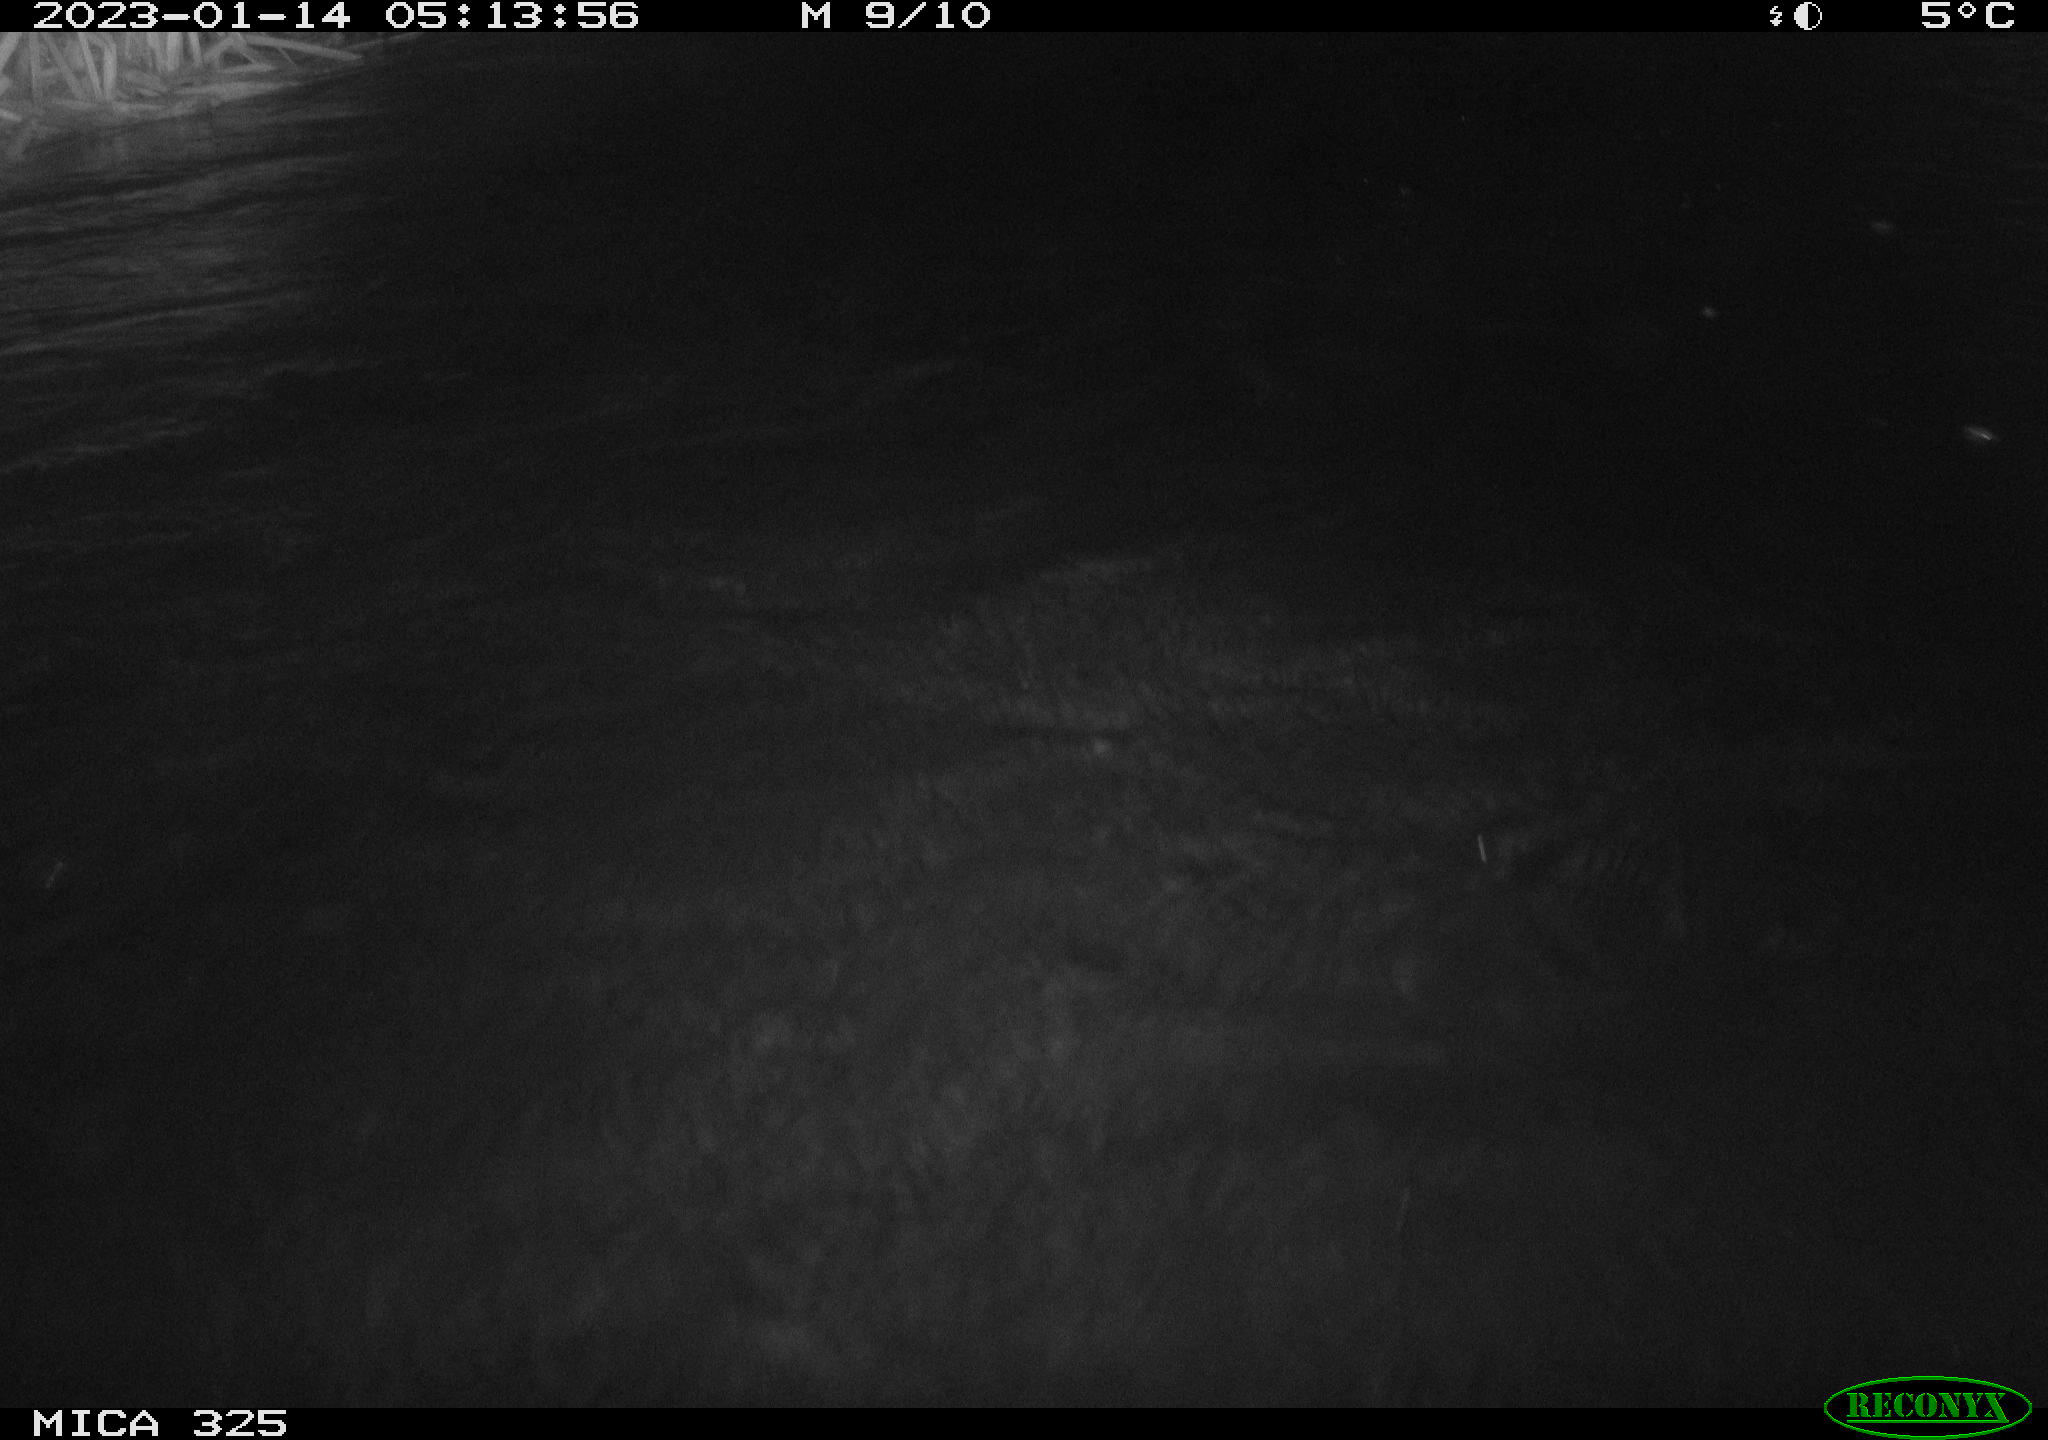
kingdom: Animalia
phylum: Chordata
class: Mammalia
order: Rodentia
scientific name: Rodentia
